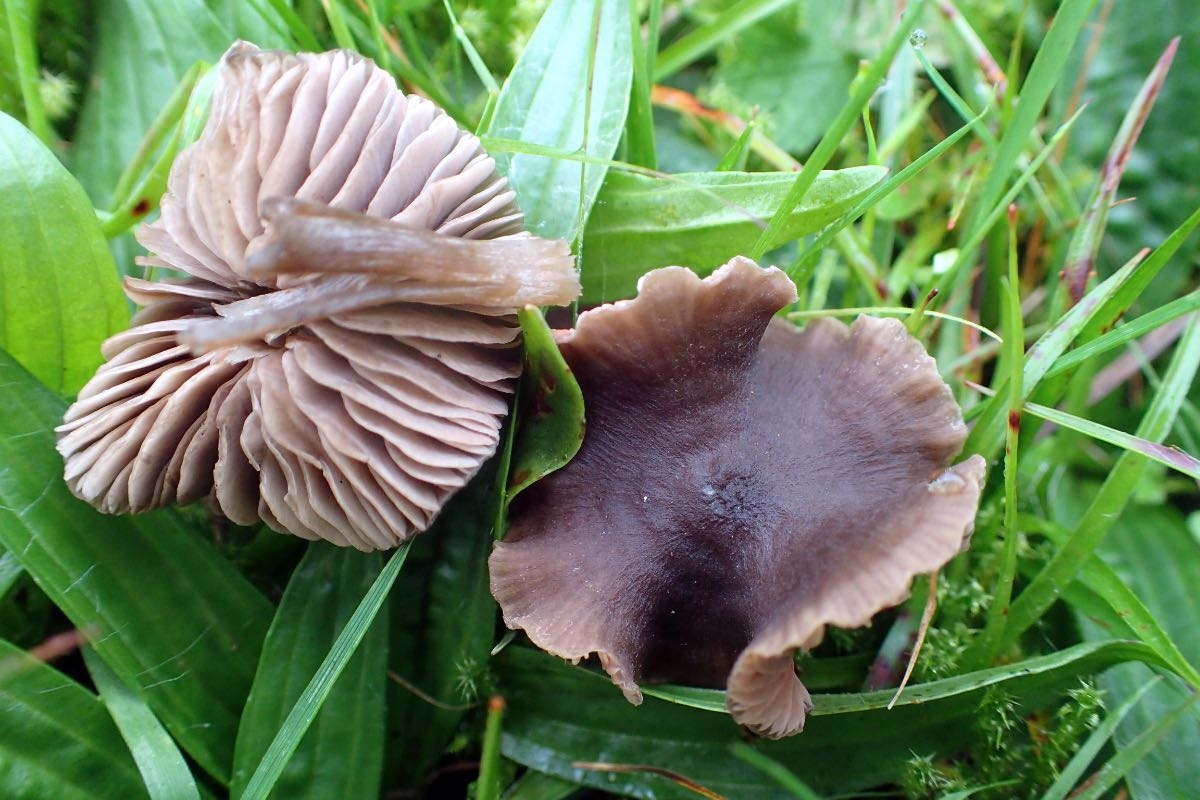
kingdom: Fungi
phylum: Basidiomycota
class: Agaricomycetes
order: Agaricales
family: Entolomataceae
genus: Entoloma
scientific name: Entoloma
